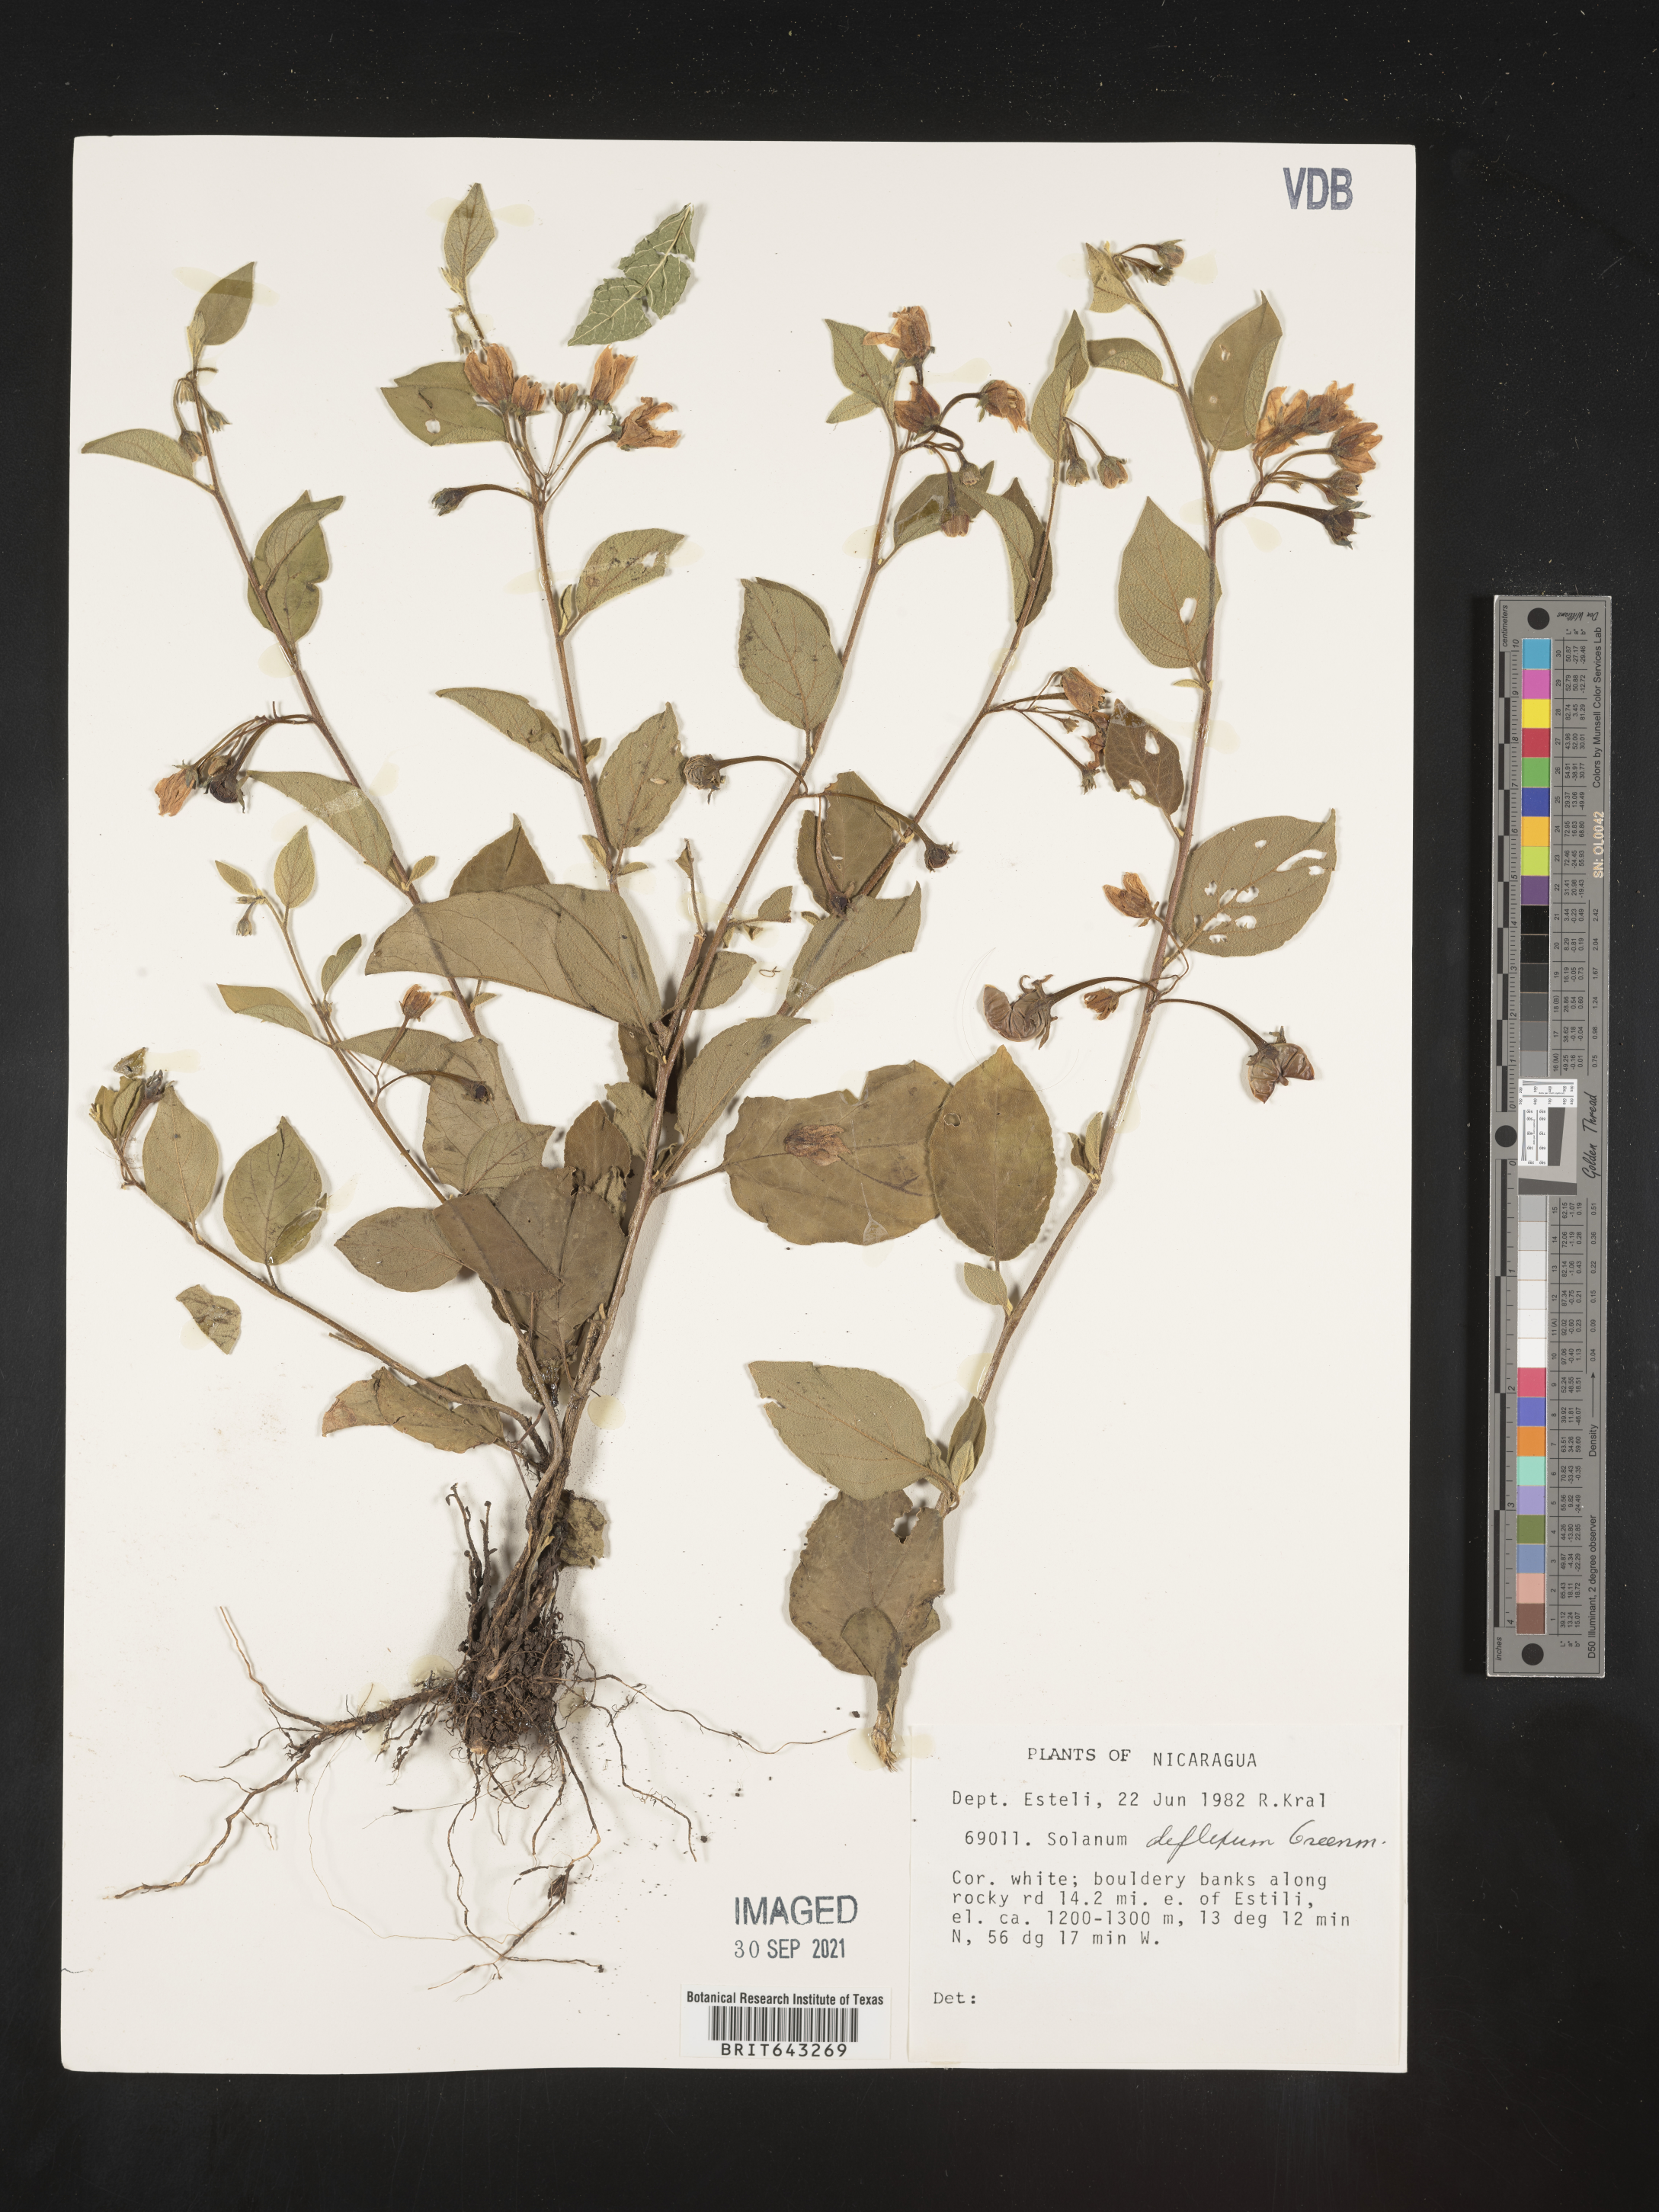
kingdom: Plantae
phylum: Tracheophyta
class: Magnoliopsida
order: Solanales
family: Solanaceae
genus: Solanum
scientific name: Solanum
